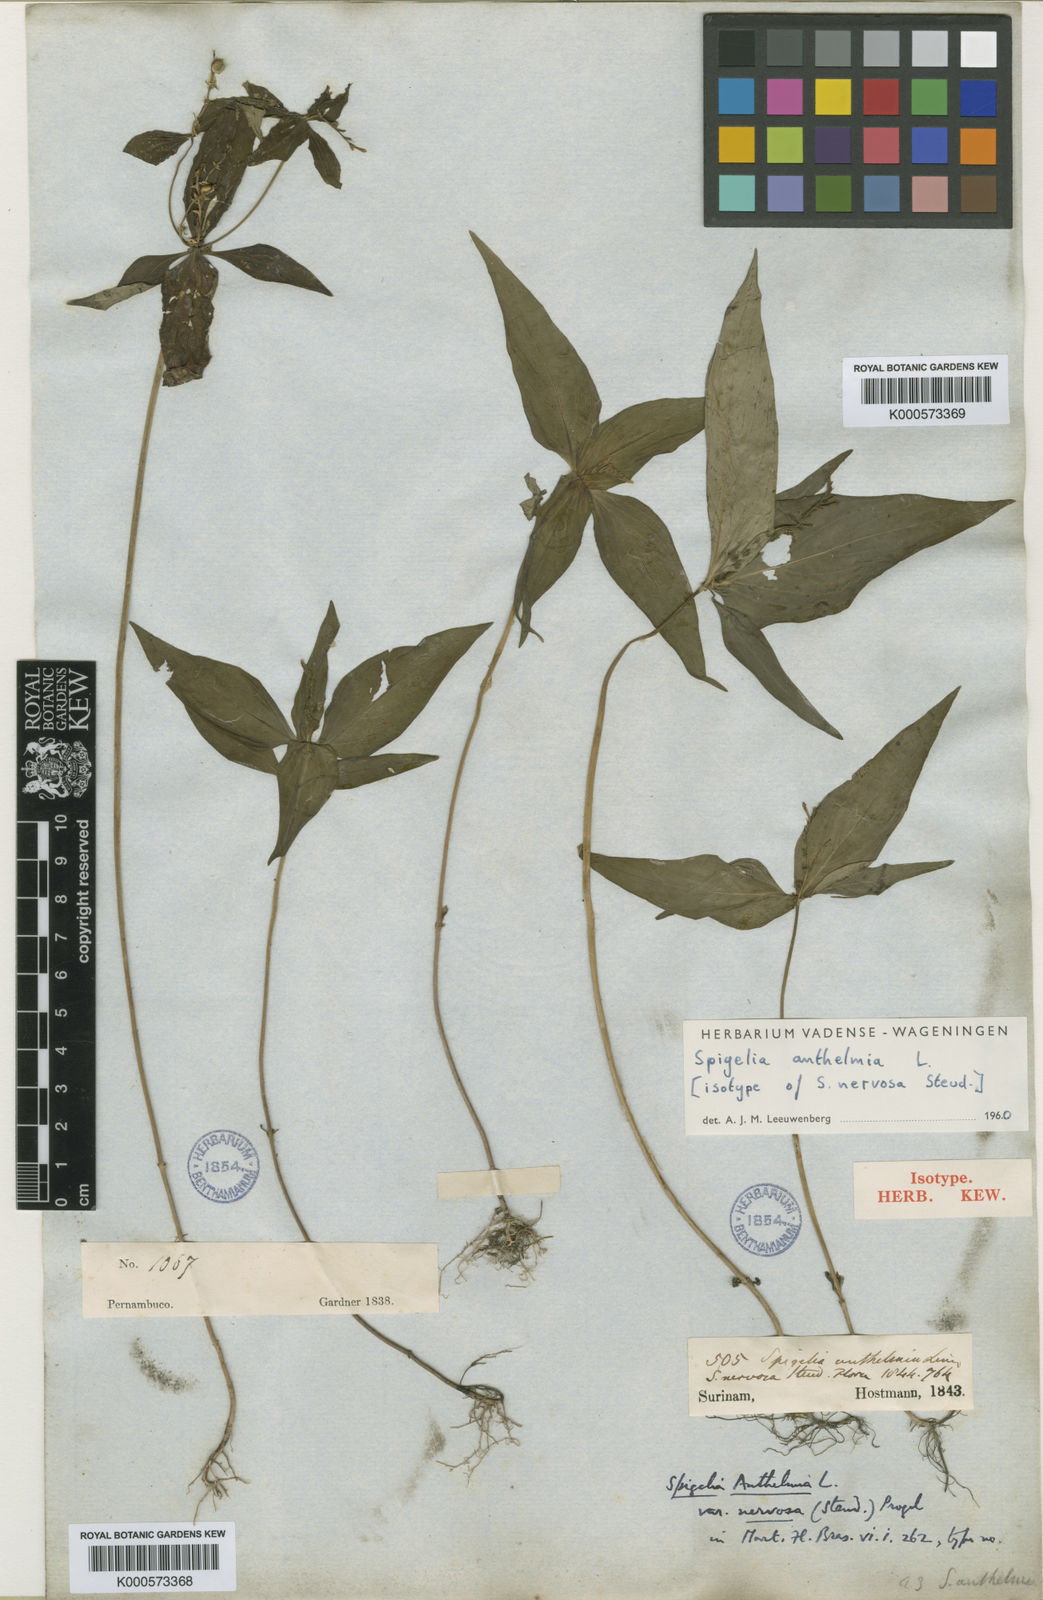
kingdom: Plantae
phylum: Tracheophyta
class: Magnoliopsida
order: Gentianales
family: Loganiaceae
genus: Spigelia
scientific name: Spigelia anthelmia
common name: West indian-pink
